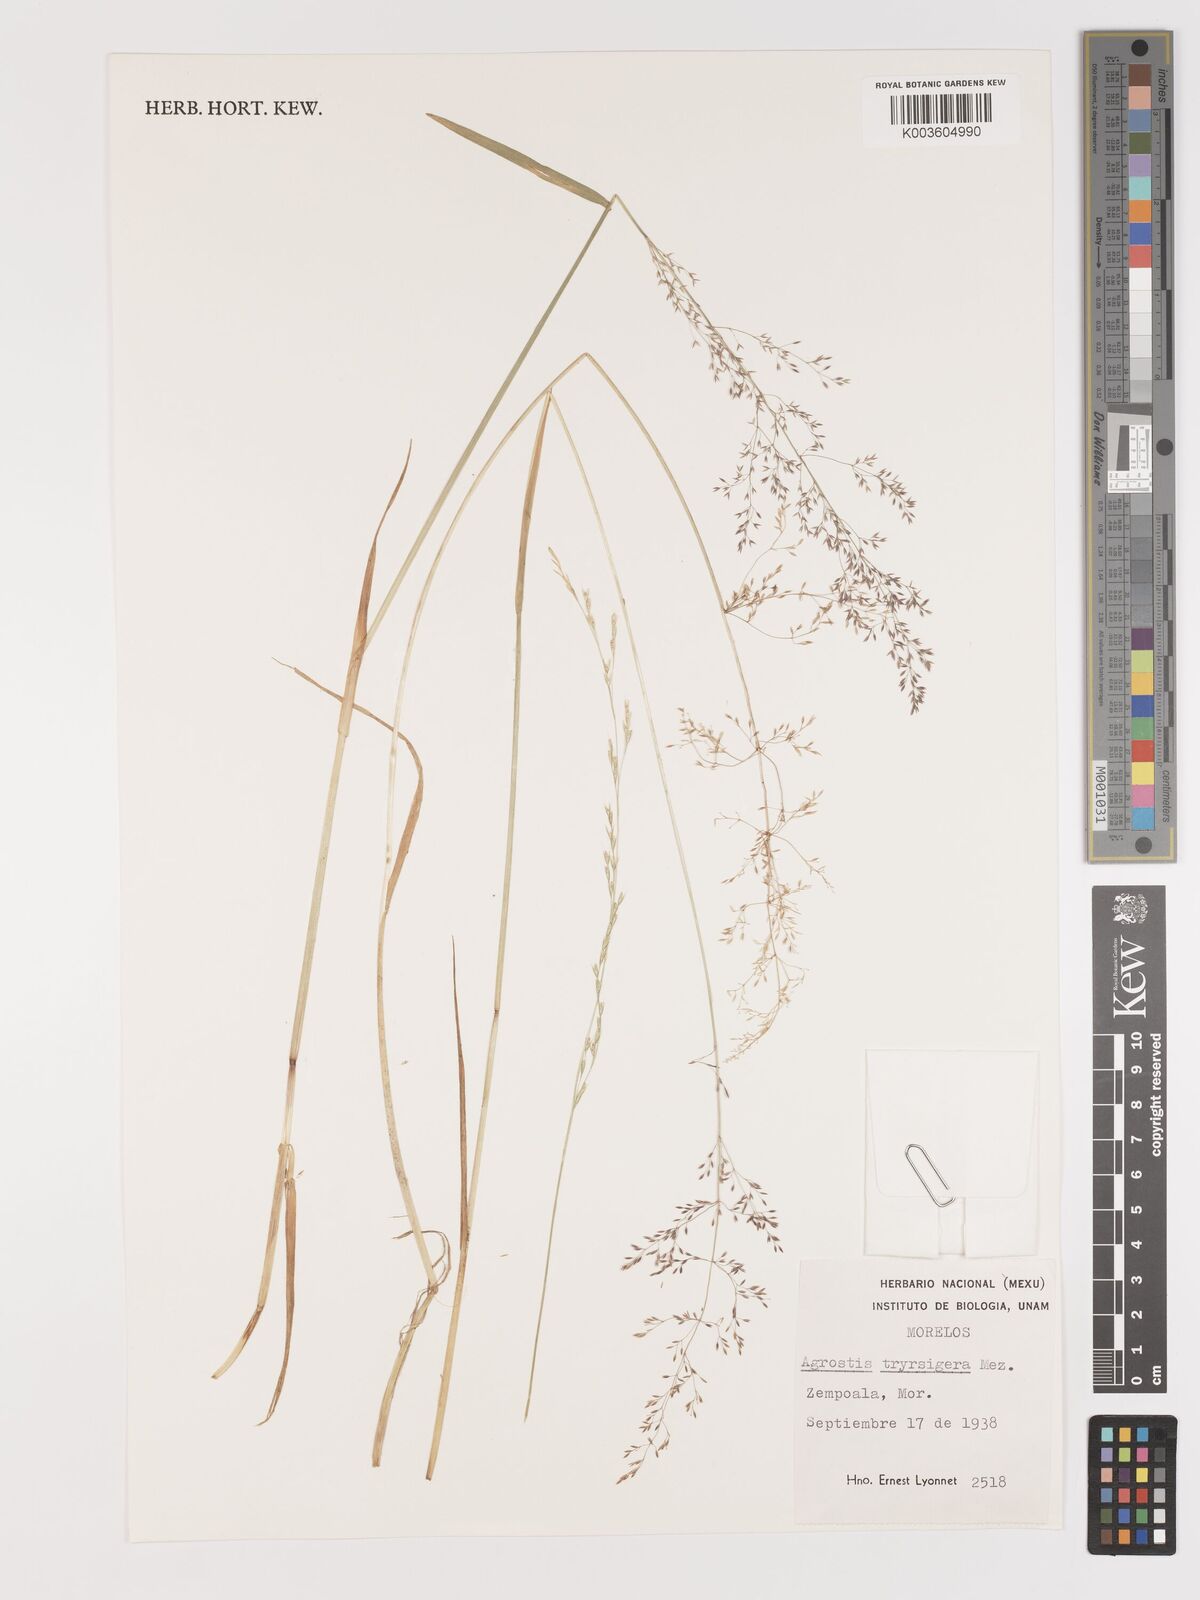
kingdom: Plantae
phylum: Tracheophyta
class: Liliopsida
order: Poales
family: Poaceae
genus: Agrostis
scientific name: Agrostis bourgaei
